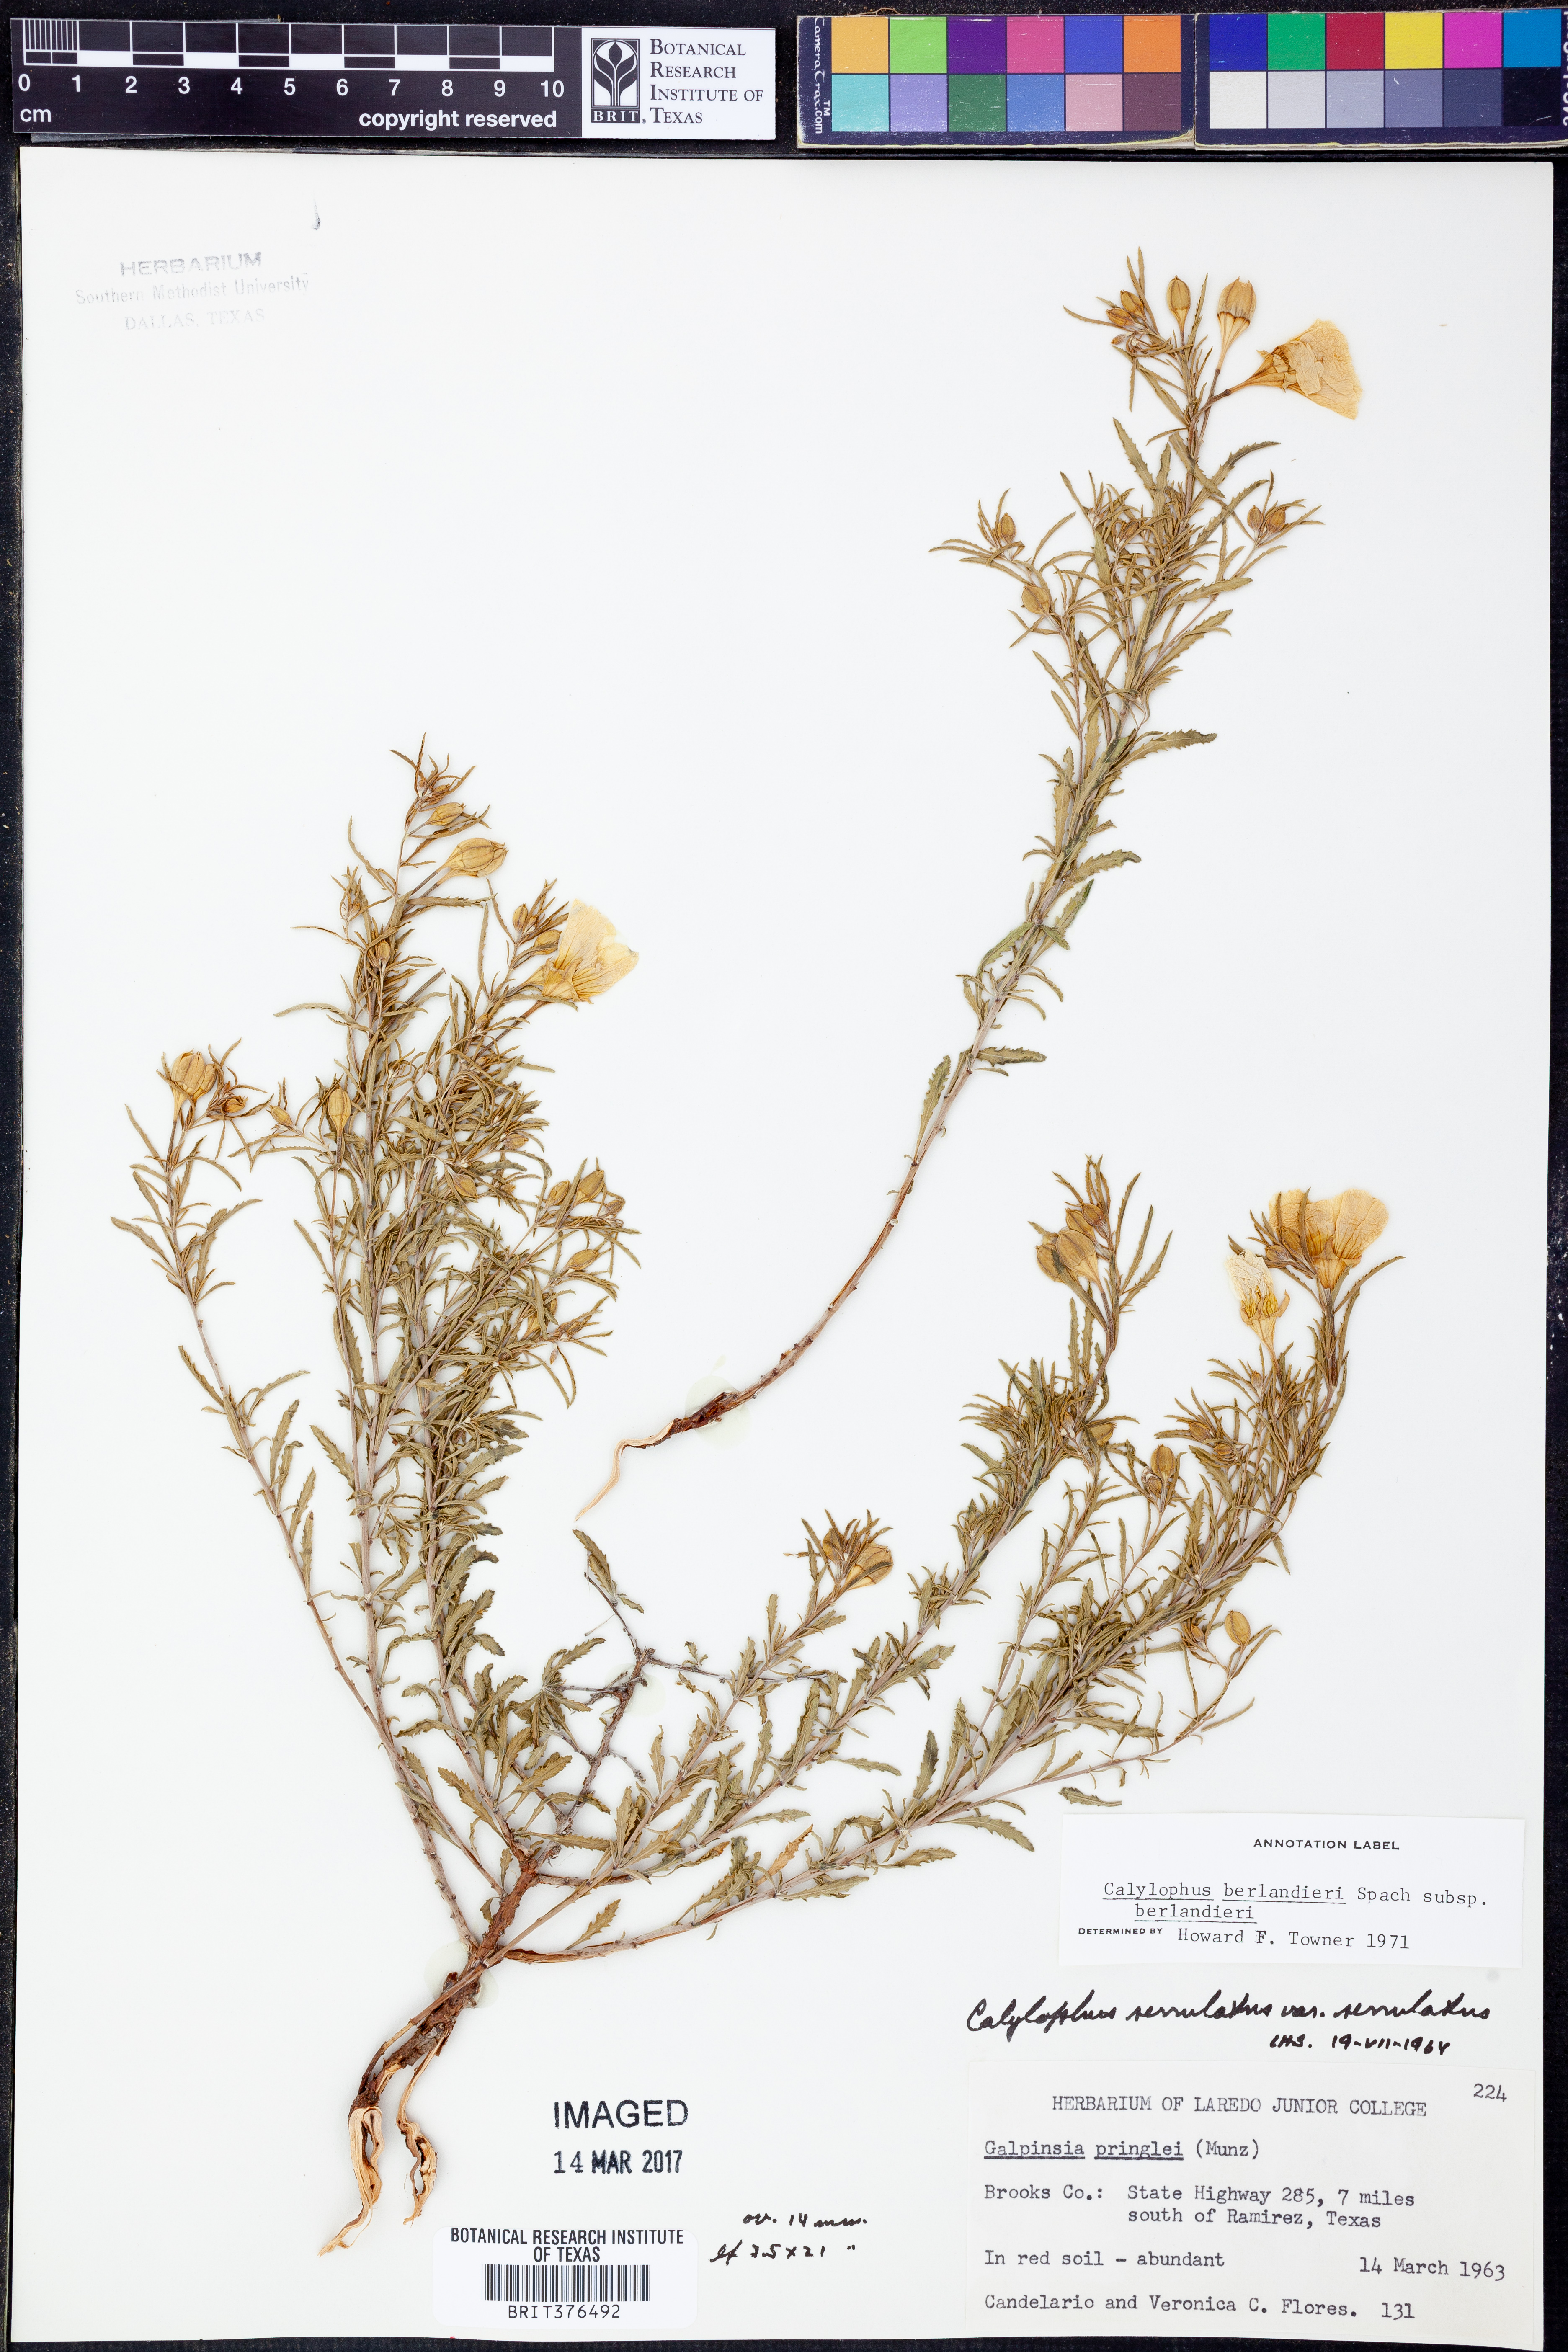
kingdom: Plantae
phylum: Tracheophyta
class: Magnoliopsida
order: Myrtales
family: Onagraceae
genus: Oenothera
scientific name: Oenothera capillifolia
